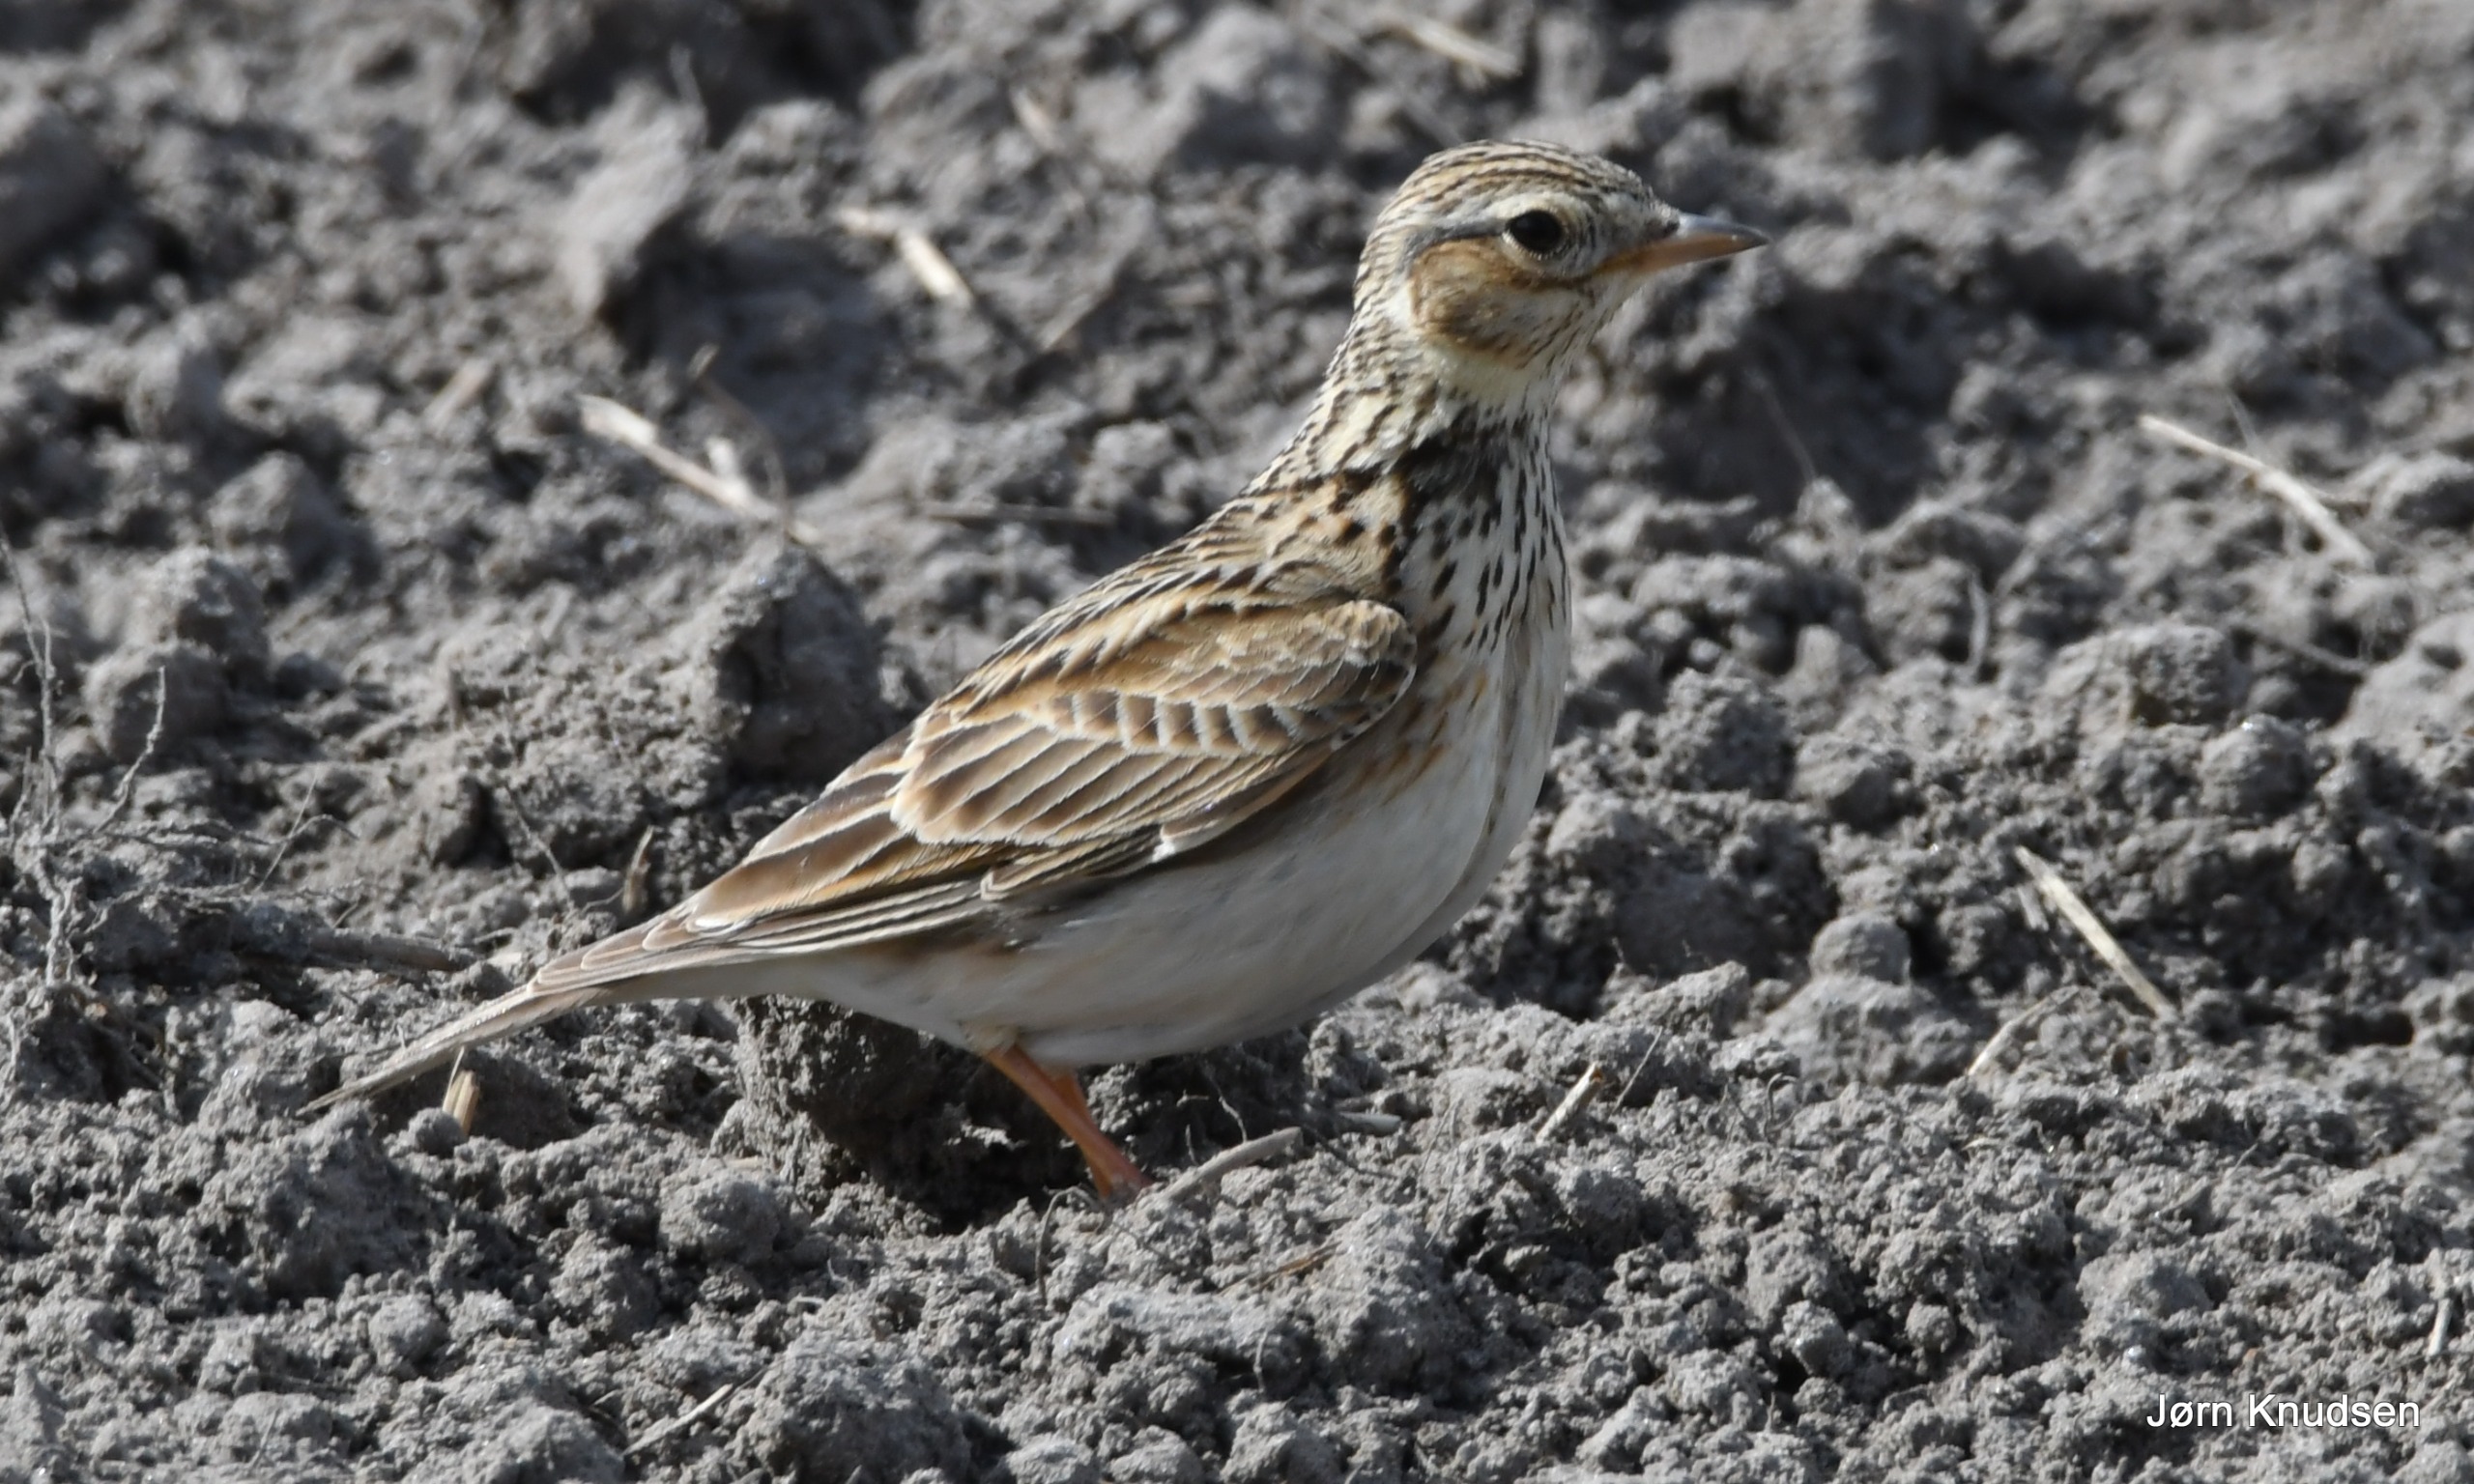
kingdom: Animalia
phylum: Chordata
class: Aves
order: Passeriformes
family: Alaudidae
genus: Alauda
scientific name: Alauda arvensis
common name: Sanglærke
